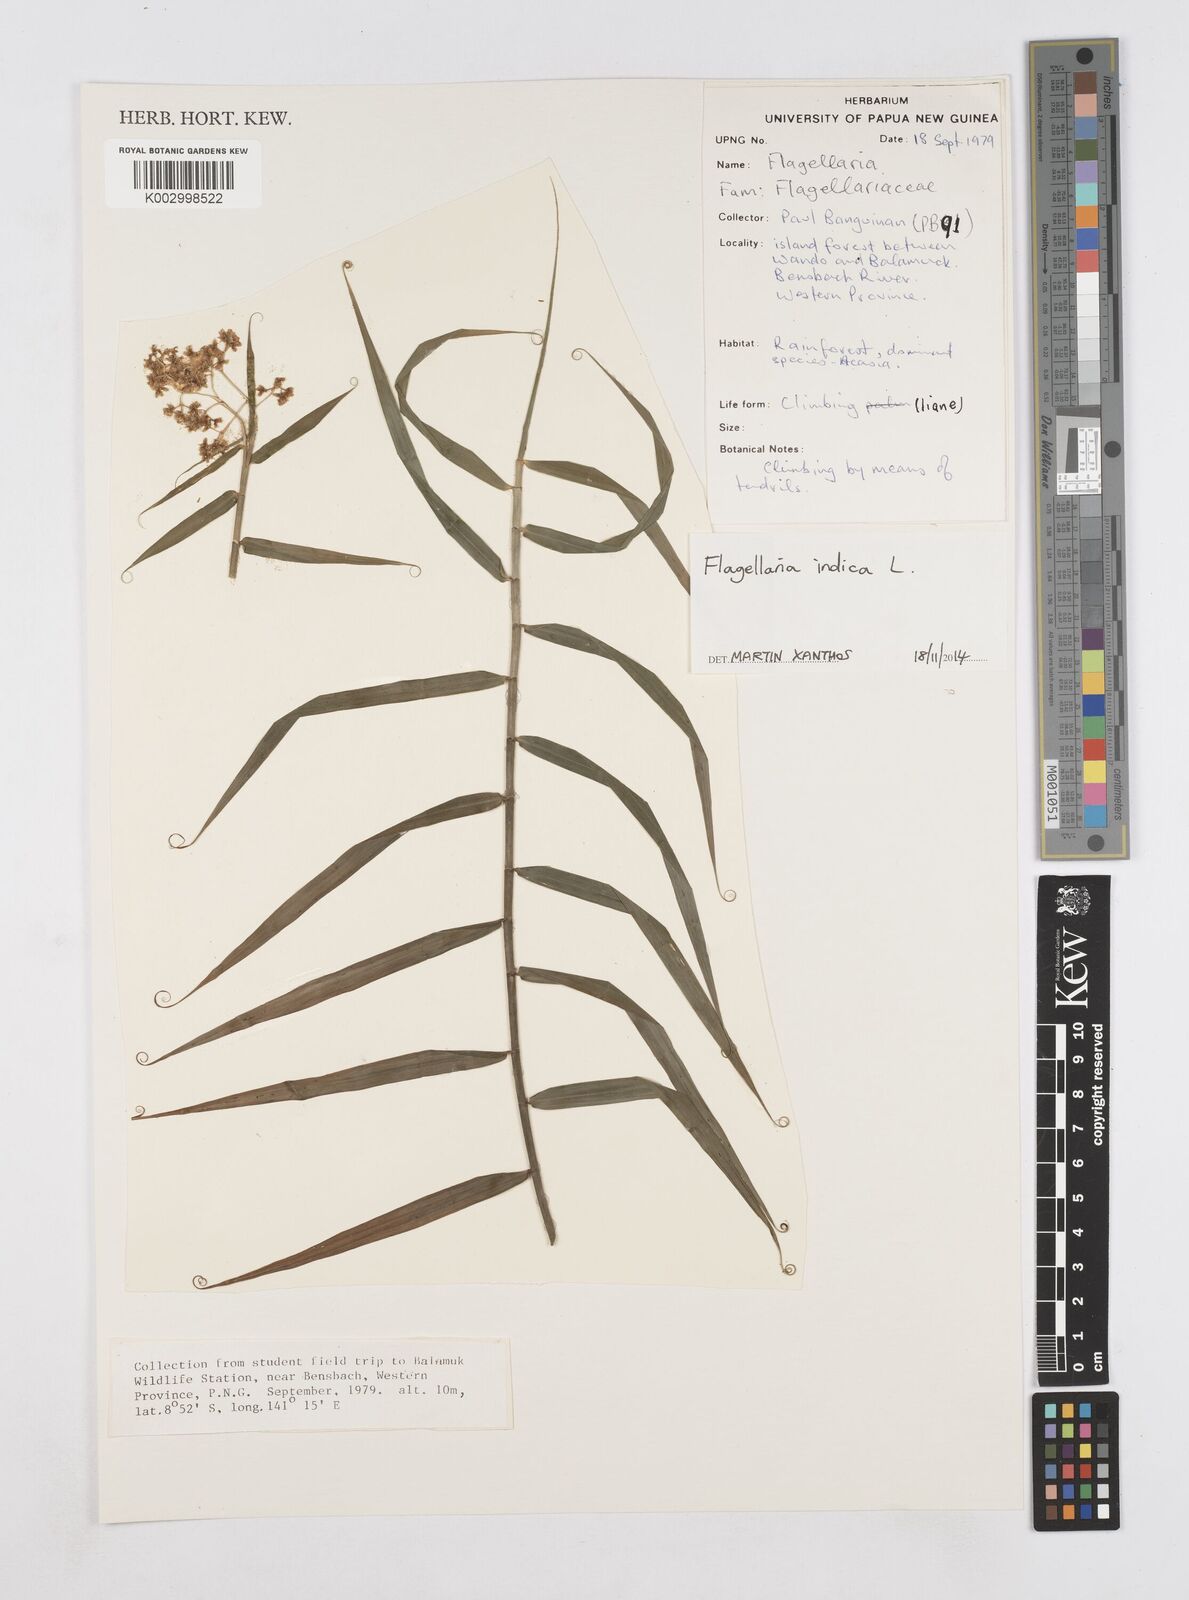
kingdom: Plantae
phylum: Tracheophyta
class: Liliopsida
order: Poales
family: Flagellariaceae
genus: Flagellaria
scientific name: Flagellaria indica
